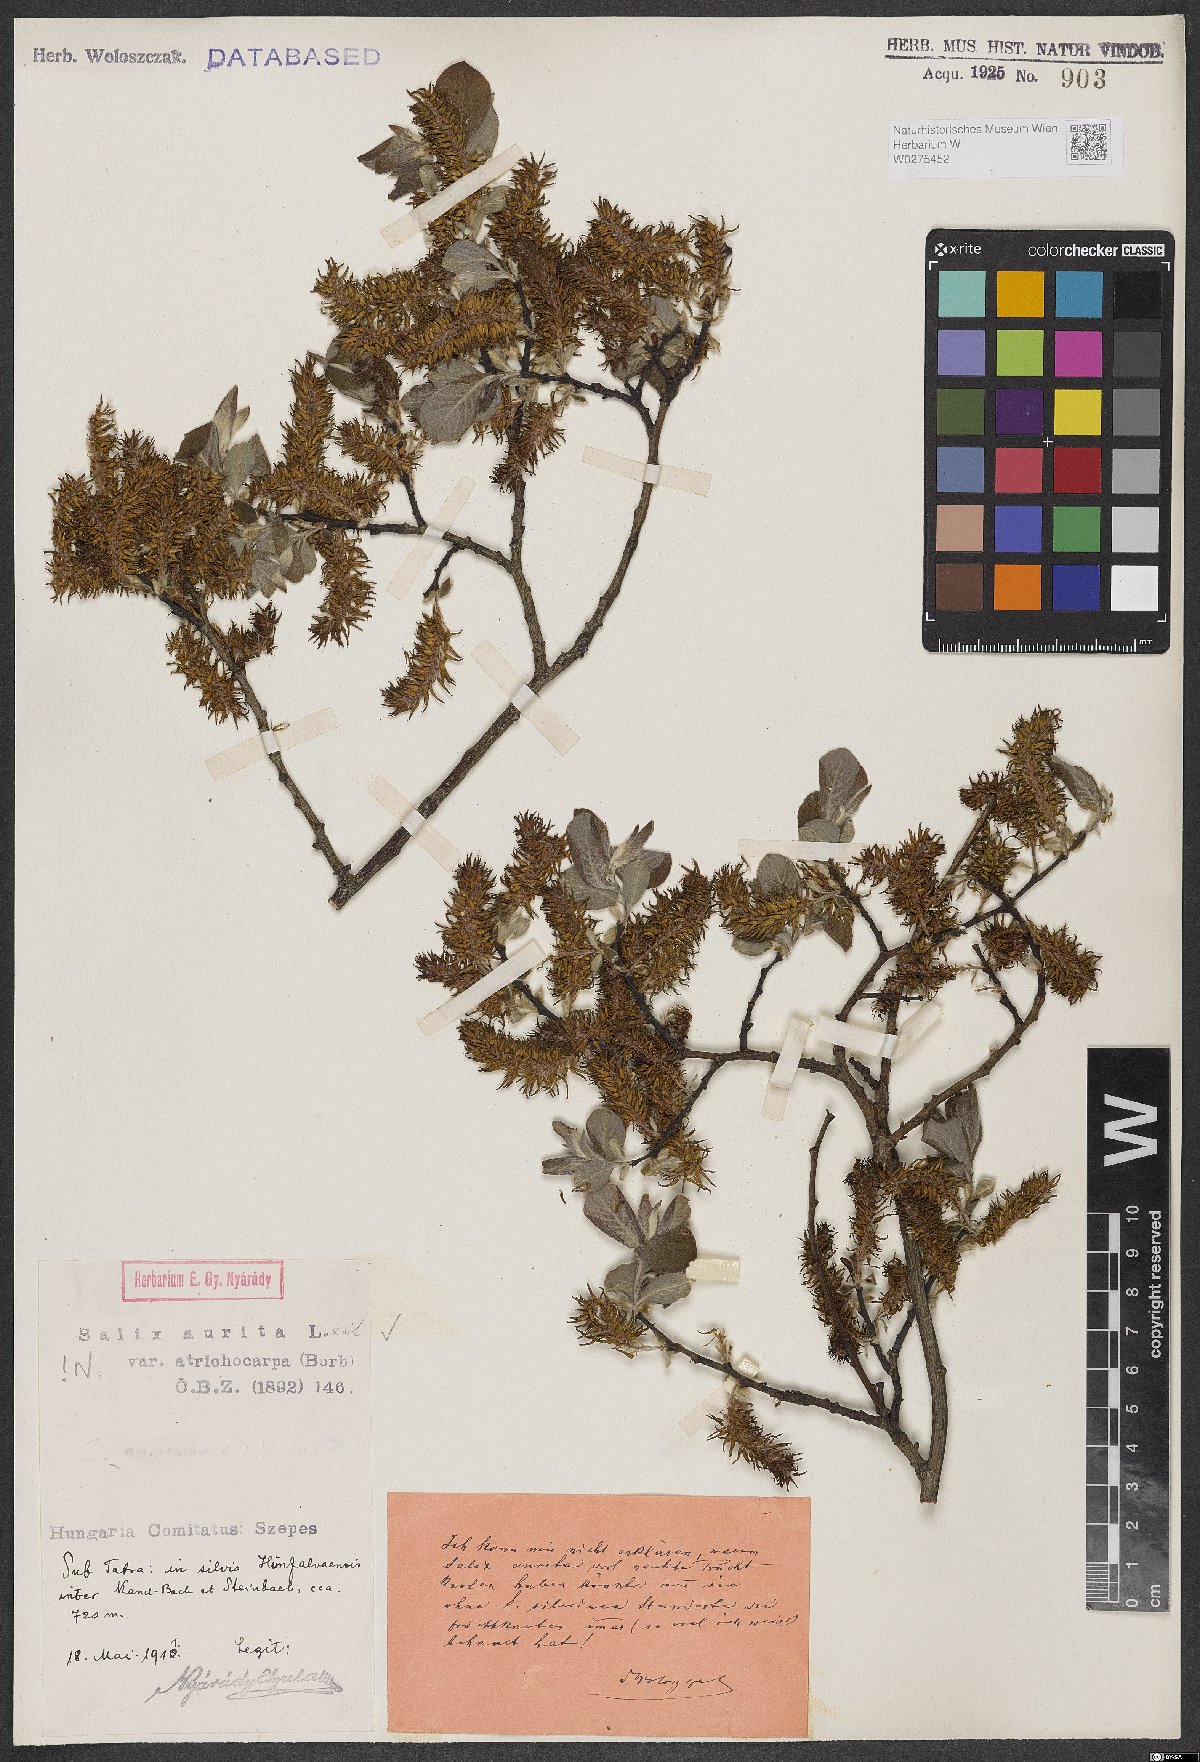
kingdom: Plantae
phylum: Tracheophyta
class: Magnoliopsida
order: Malpighiales
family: Salicaceae
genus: Salix
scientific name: Salix aurita
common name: Eared willow
